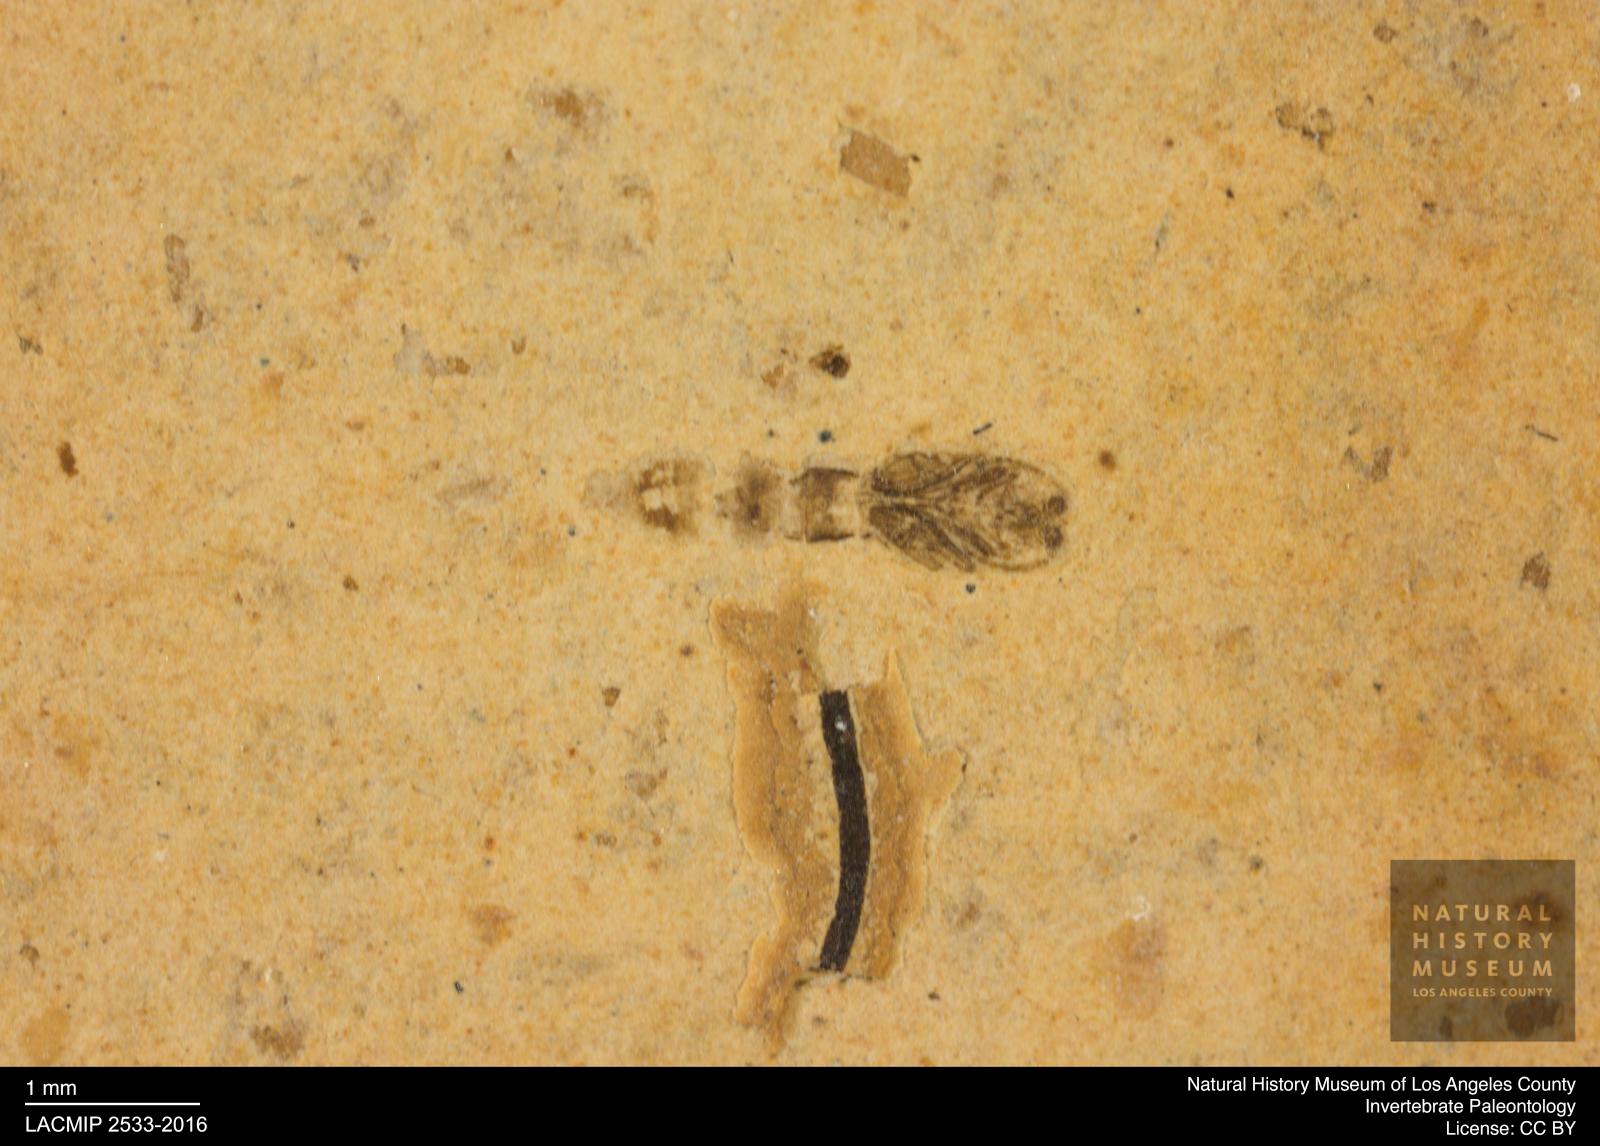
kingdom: Animalia
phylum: Arthropoda
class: Insecta
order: Diptera
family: Ceratopogonidae
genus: Ceratopogon
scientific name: Ceratopogon
